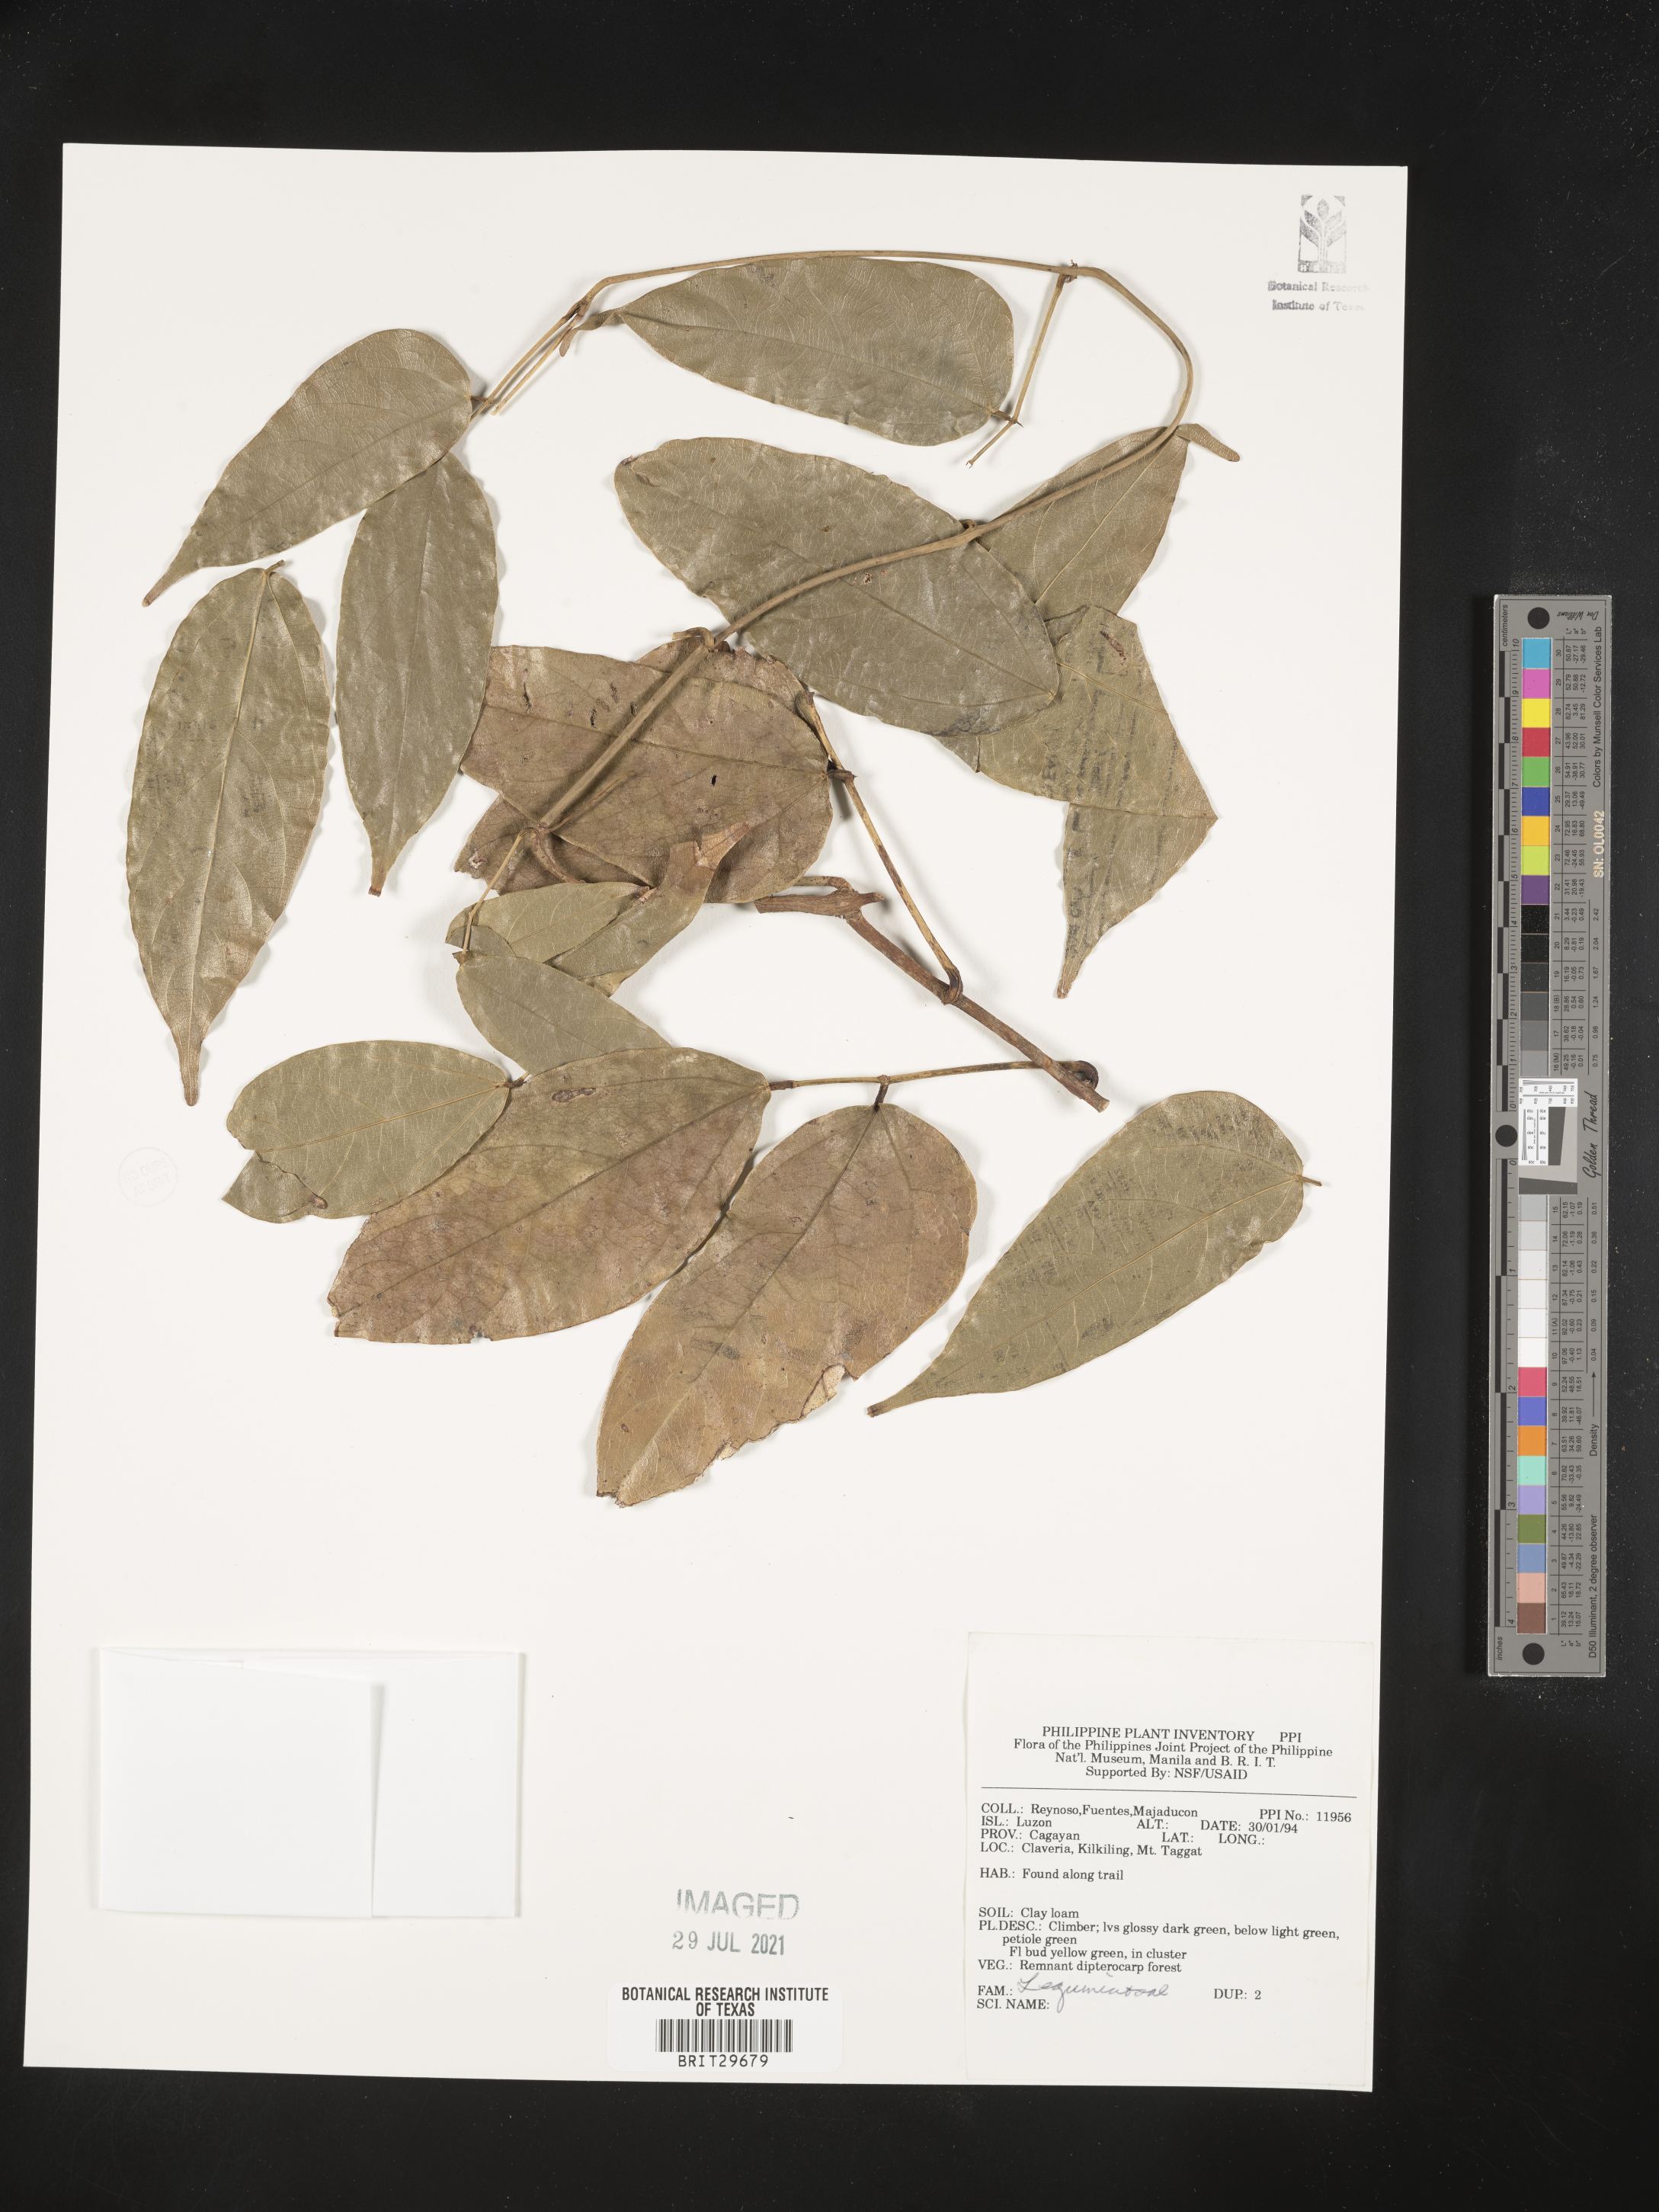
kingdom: Plantae
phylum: Tracheophyta
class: Magnoliopsida
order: Fabales
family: Fabaceae
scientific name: Fabaceae
